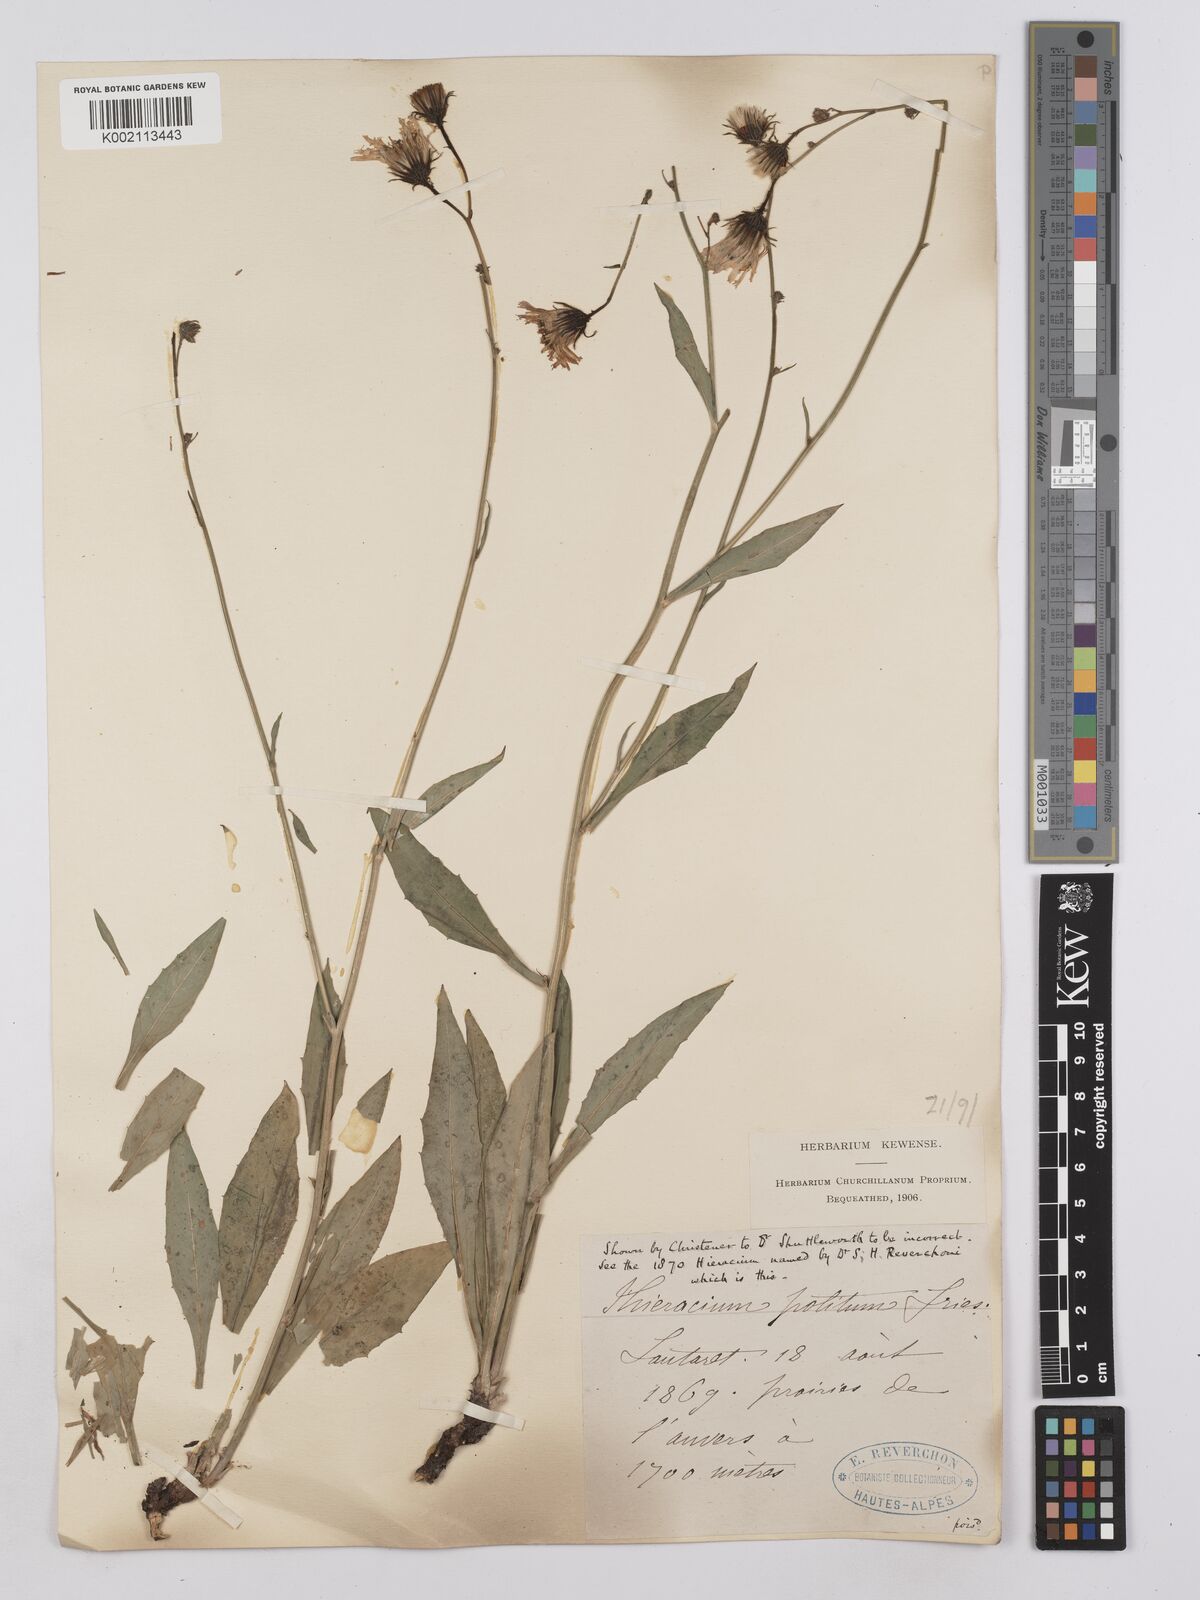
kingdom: Plantae
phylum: Tracheophyta
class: Magnoliopsida
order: Asterales
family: Asteraceae
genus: Hieracium
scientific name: Hieracium neyranum
